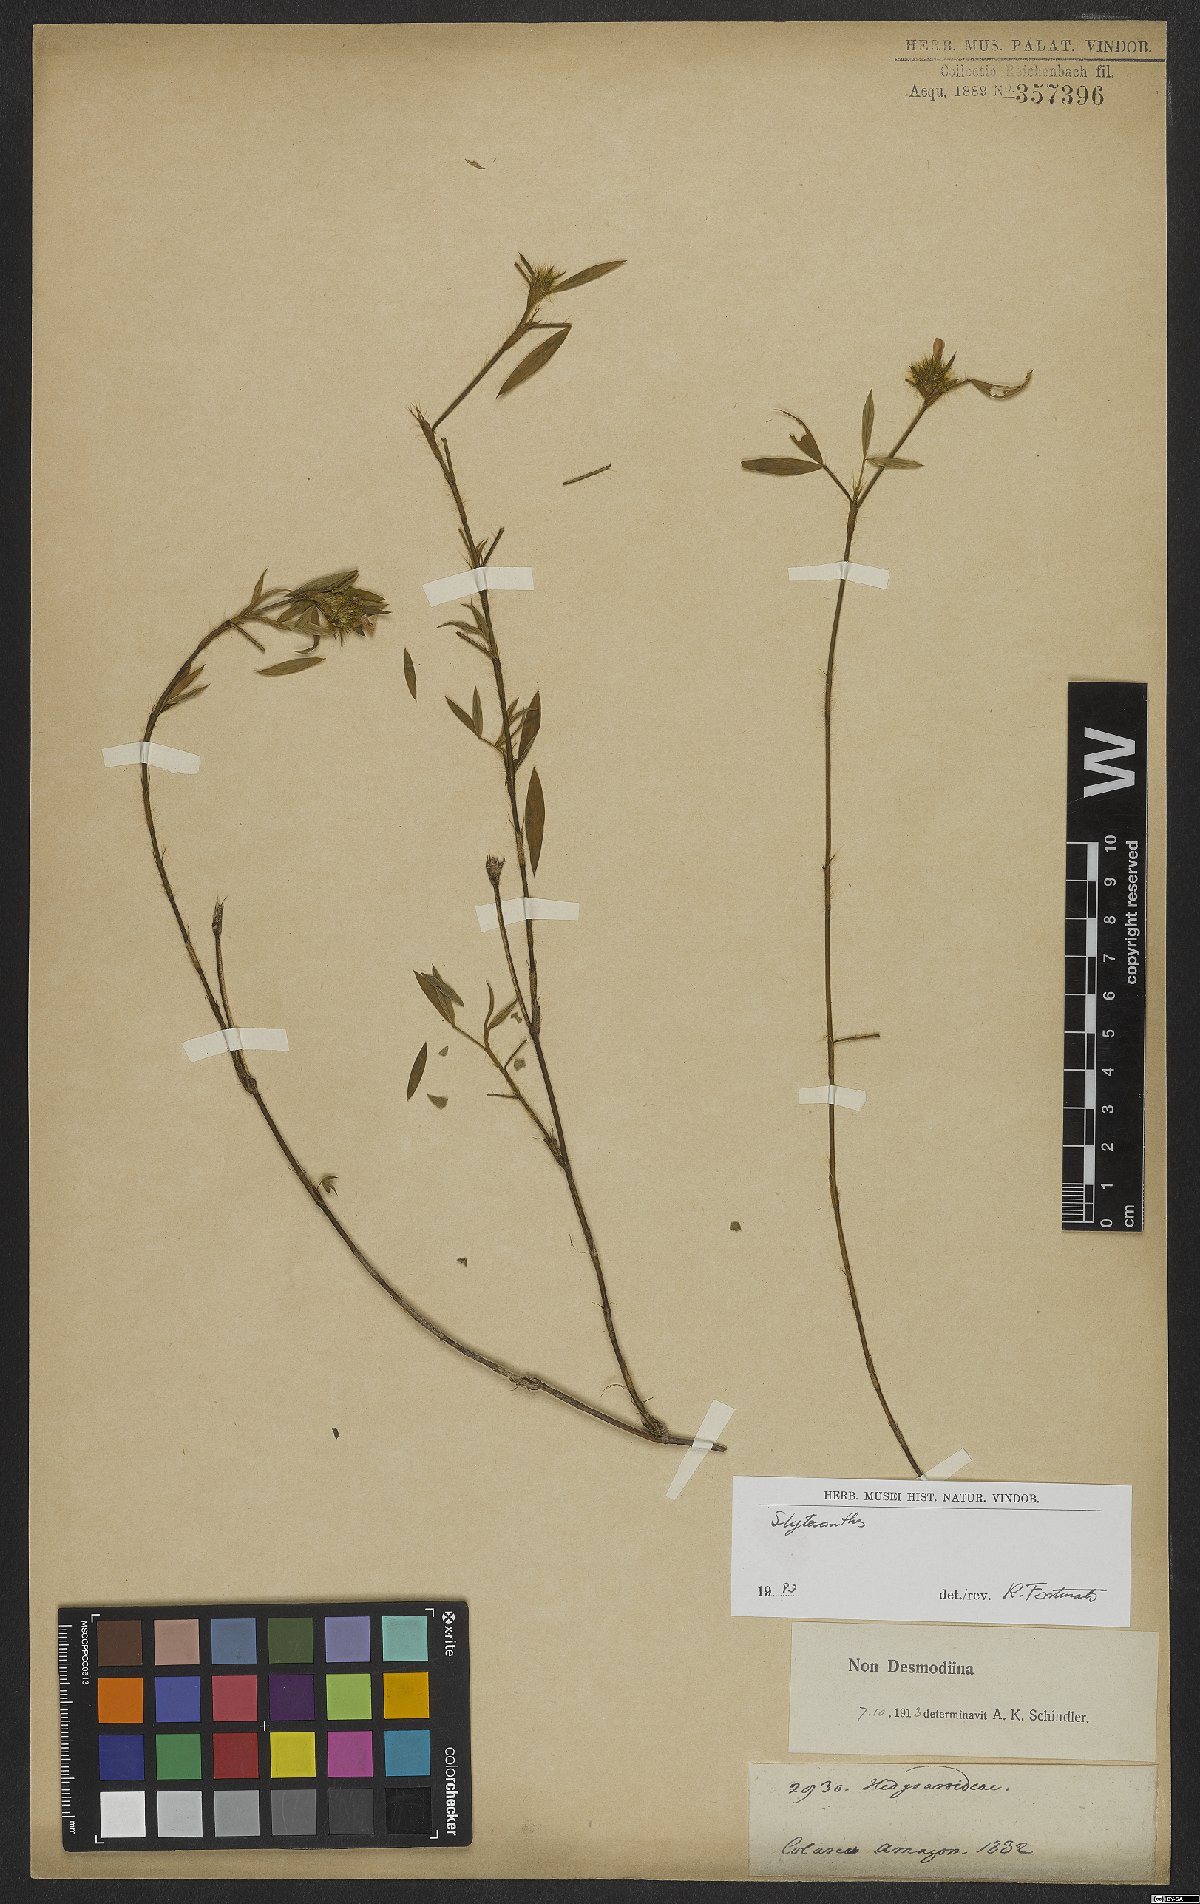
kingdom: Plantae
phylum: Tracheophyta
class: Magnoliopsida
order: Fabales
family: Fabaceae
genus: Stylosanthes
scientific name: Stylosanthes
